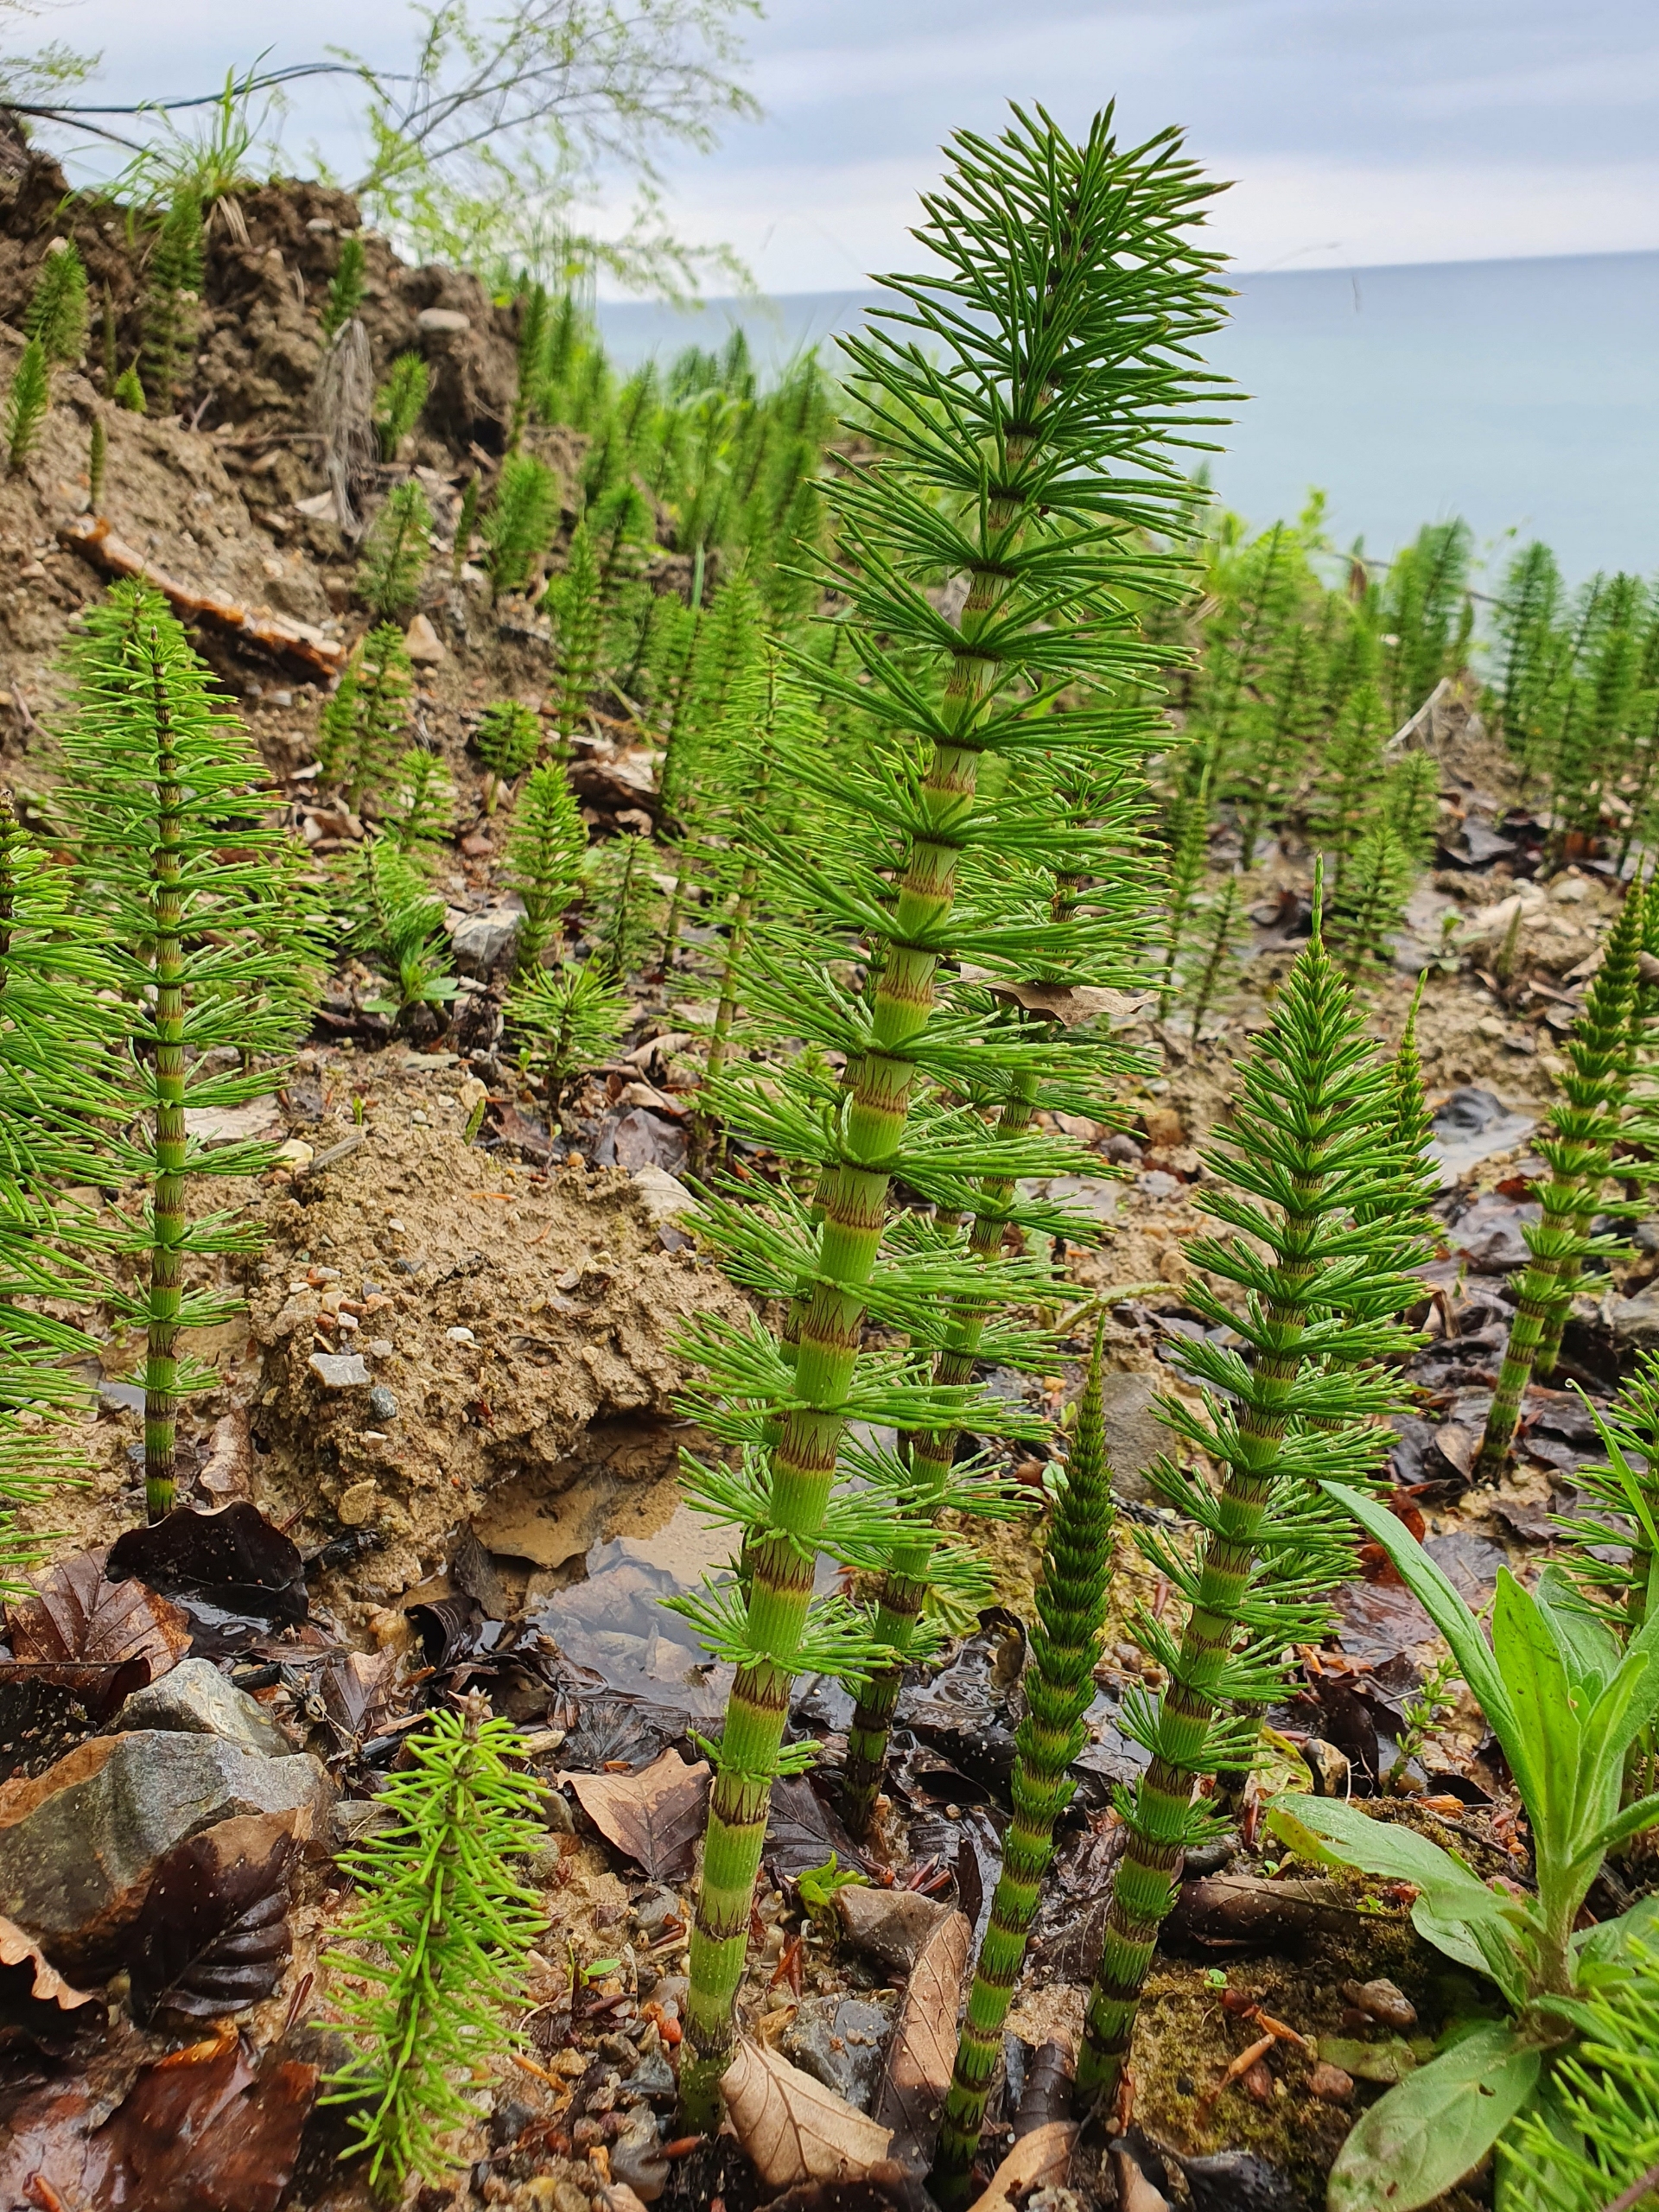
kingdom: Plantae
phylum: Tracheophyta
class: Polypodiopsida
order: Equisetales
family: Equisetaceae
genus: Equisetum
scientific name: Equisetum telmateia
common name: Elfenbens-padderok
